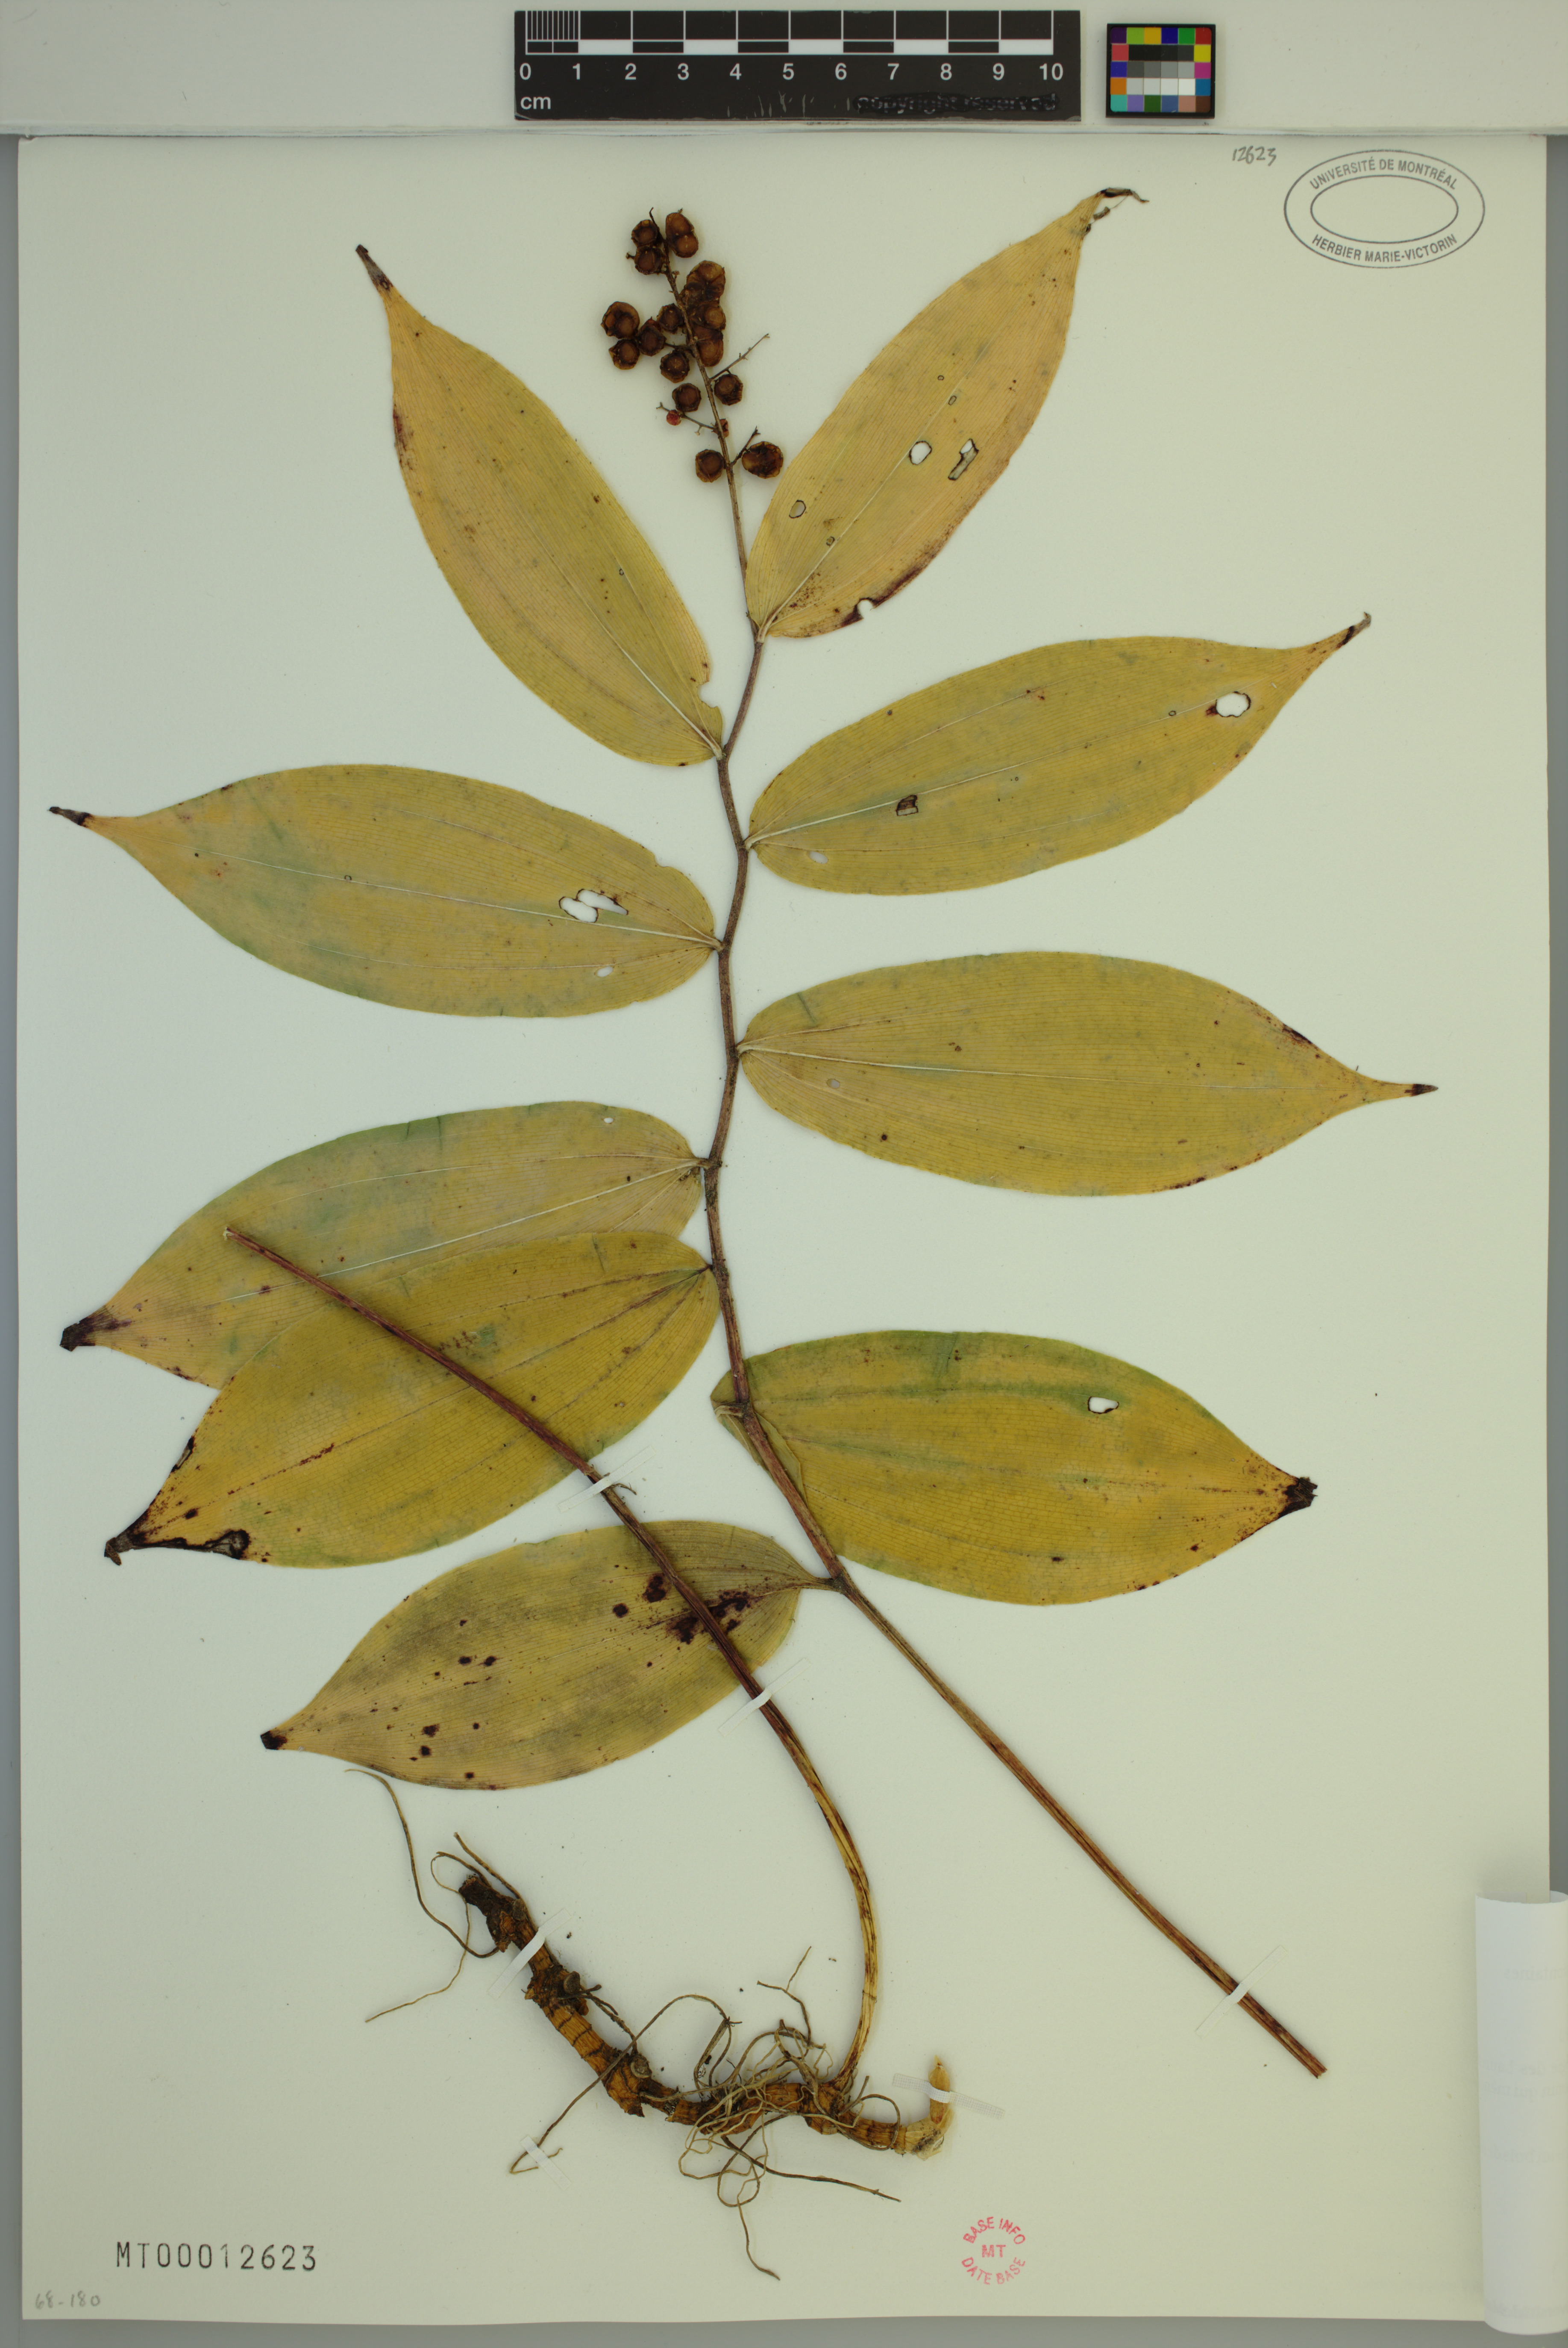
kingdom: Plantae
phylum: Tracheophyta
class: Liliopsida
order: Asparagales
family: Asparagaceae
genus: Maianthemum
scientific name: Maianthemum racemosum
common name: False spikenard
